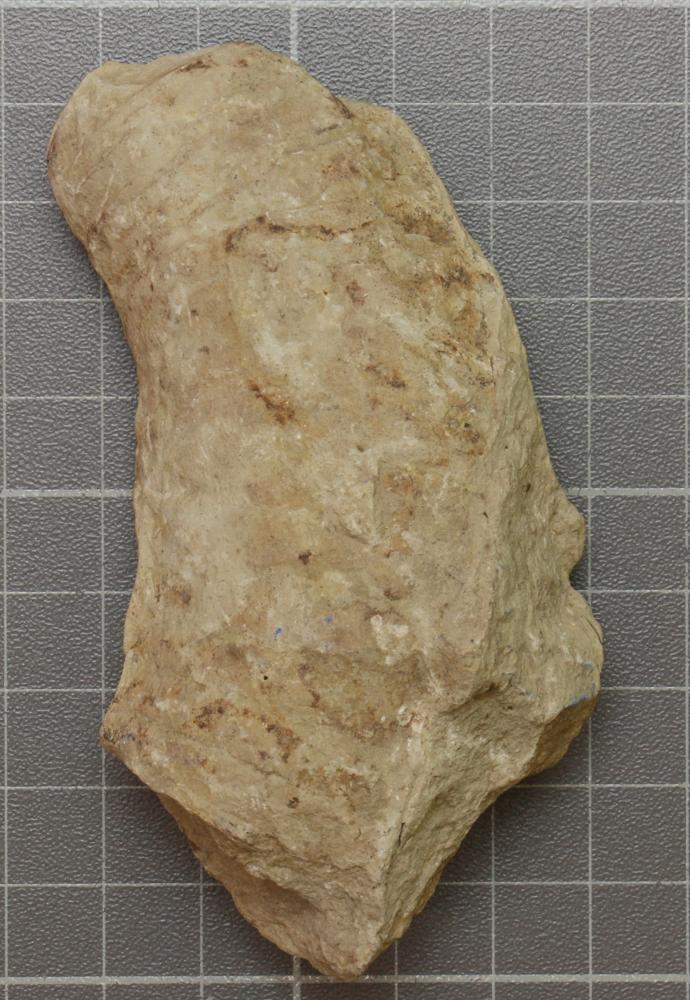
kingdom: Animalia
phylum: Mollusca
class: Cephalopoda
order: Nautilida
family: Nautilidae
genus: Richardsonoceras
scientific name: Richardsonoceras sinuososeptatum
